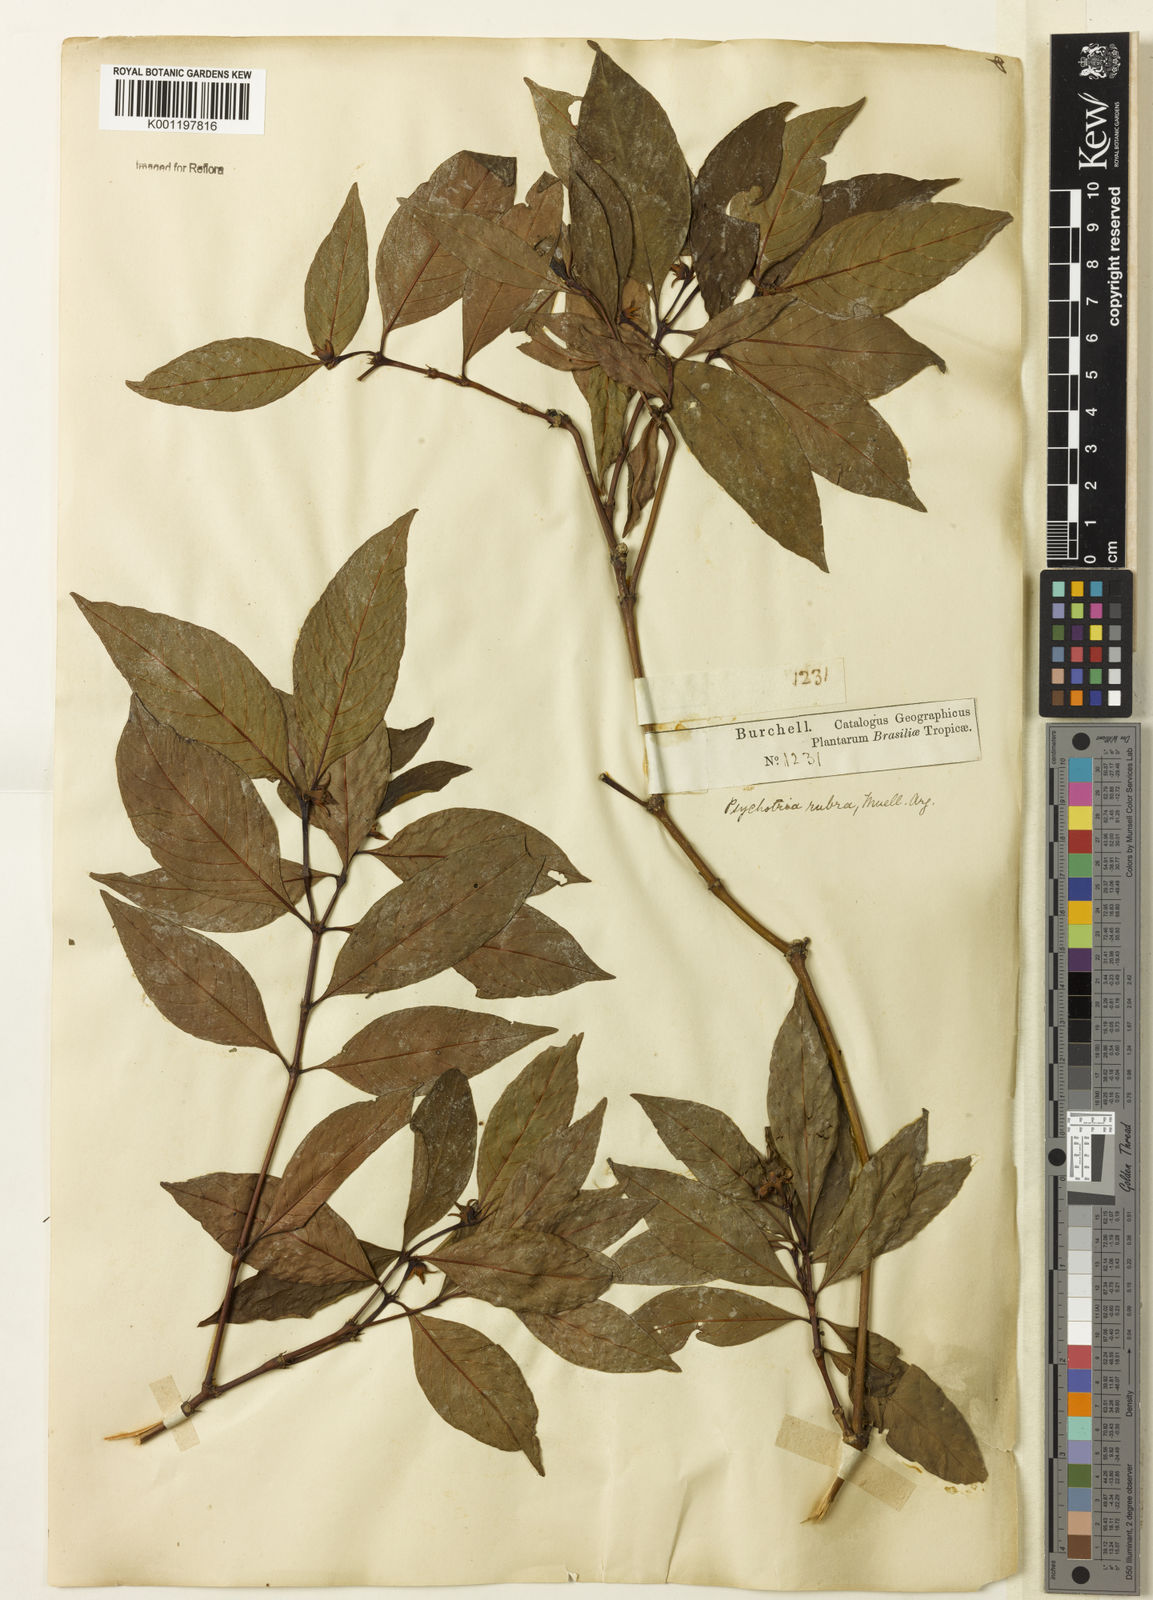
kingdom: Plantae
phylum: Tracheophyta
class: Magnoliopsida
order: Gentianales
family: Rubiaceae
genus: Psychotria
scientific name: Psychotria
